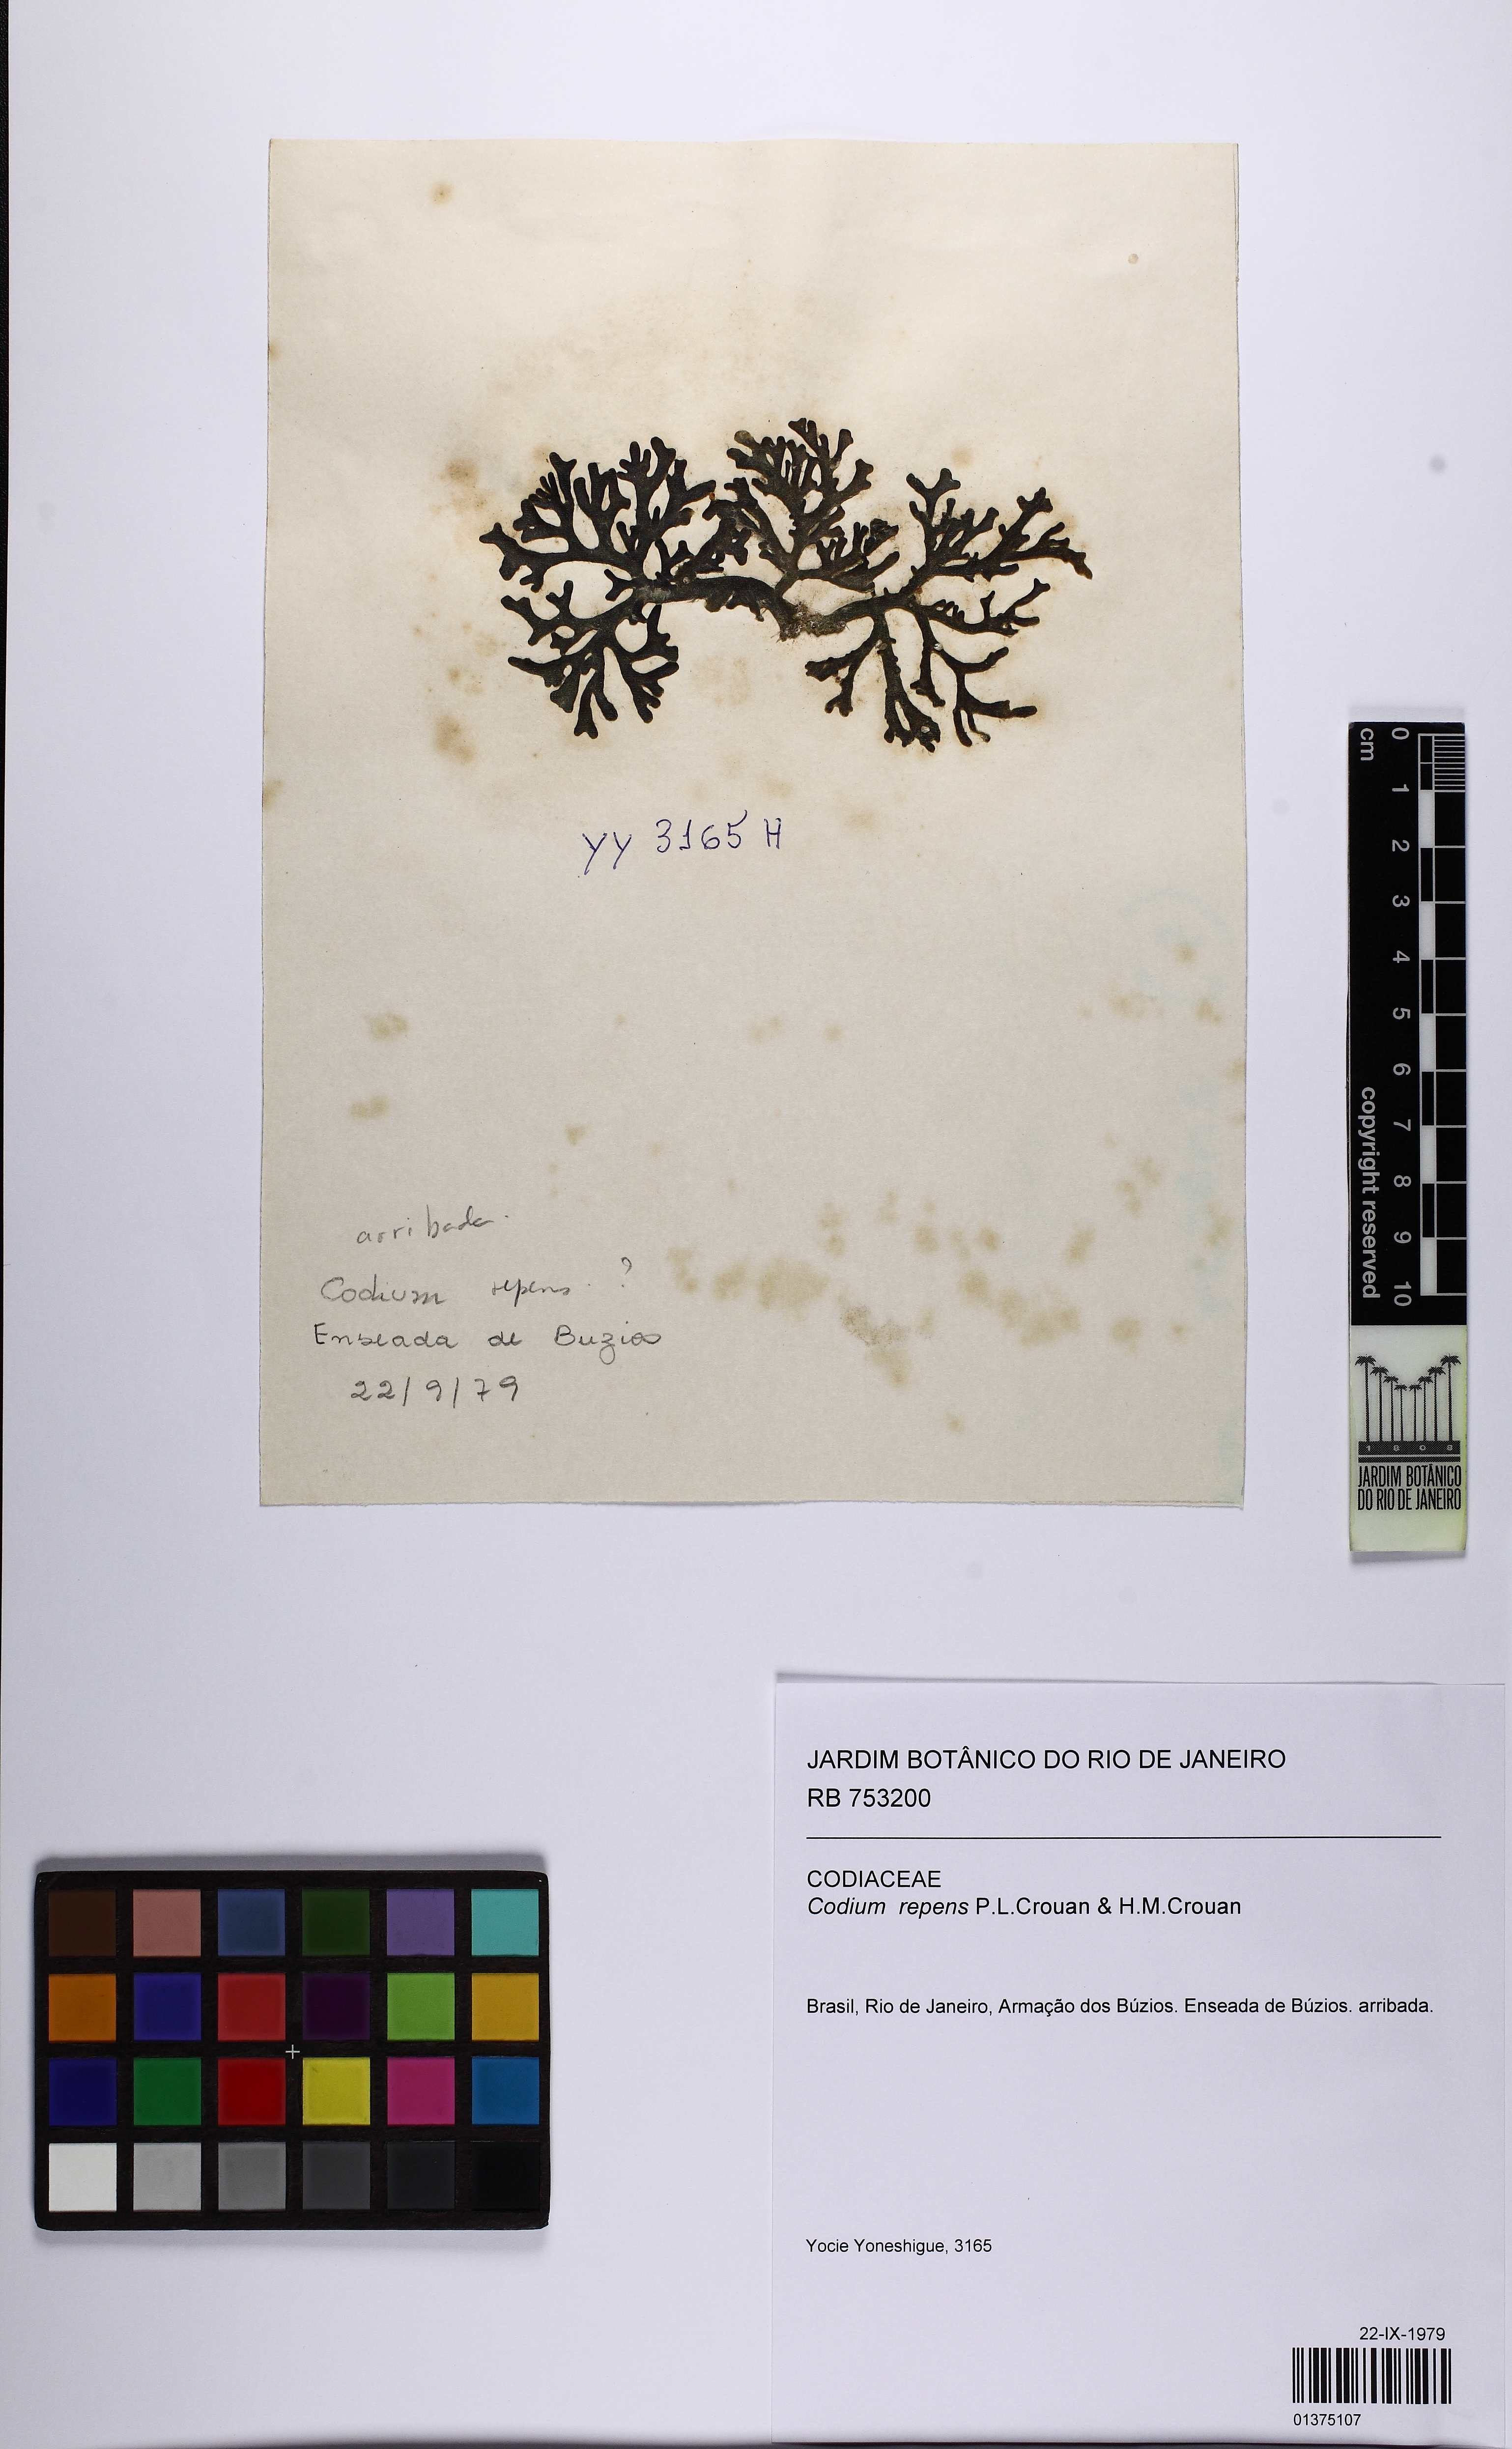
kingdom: Plantae
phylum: Chlorophyta
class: Ulvophyceae
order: Bryopsidales
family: Codiaceae
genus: Codium
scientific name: Codium repens
